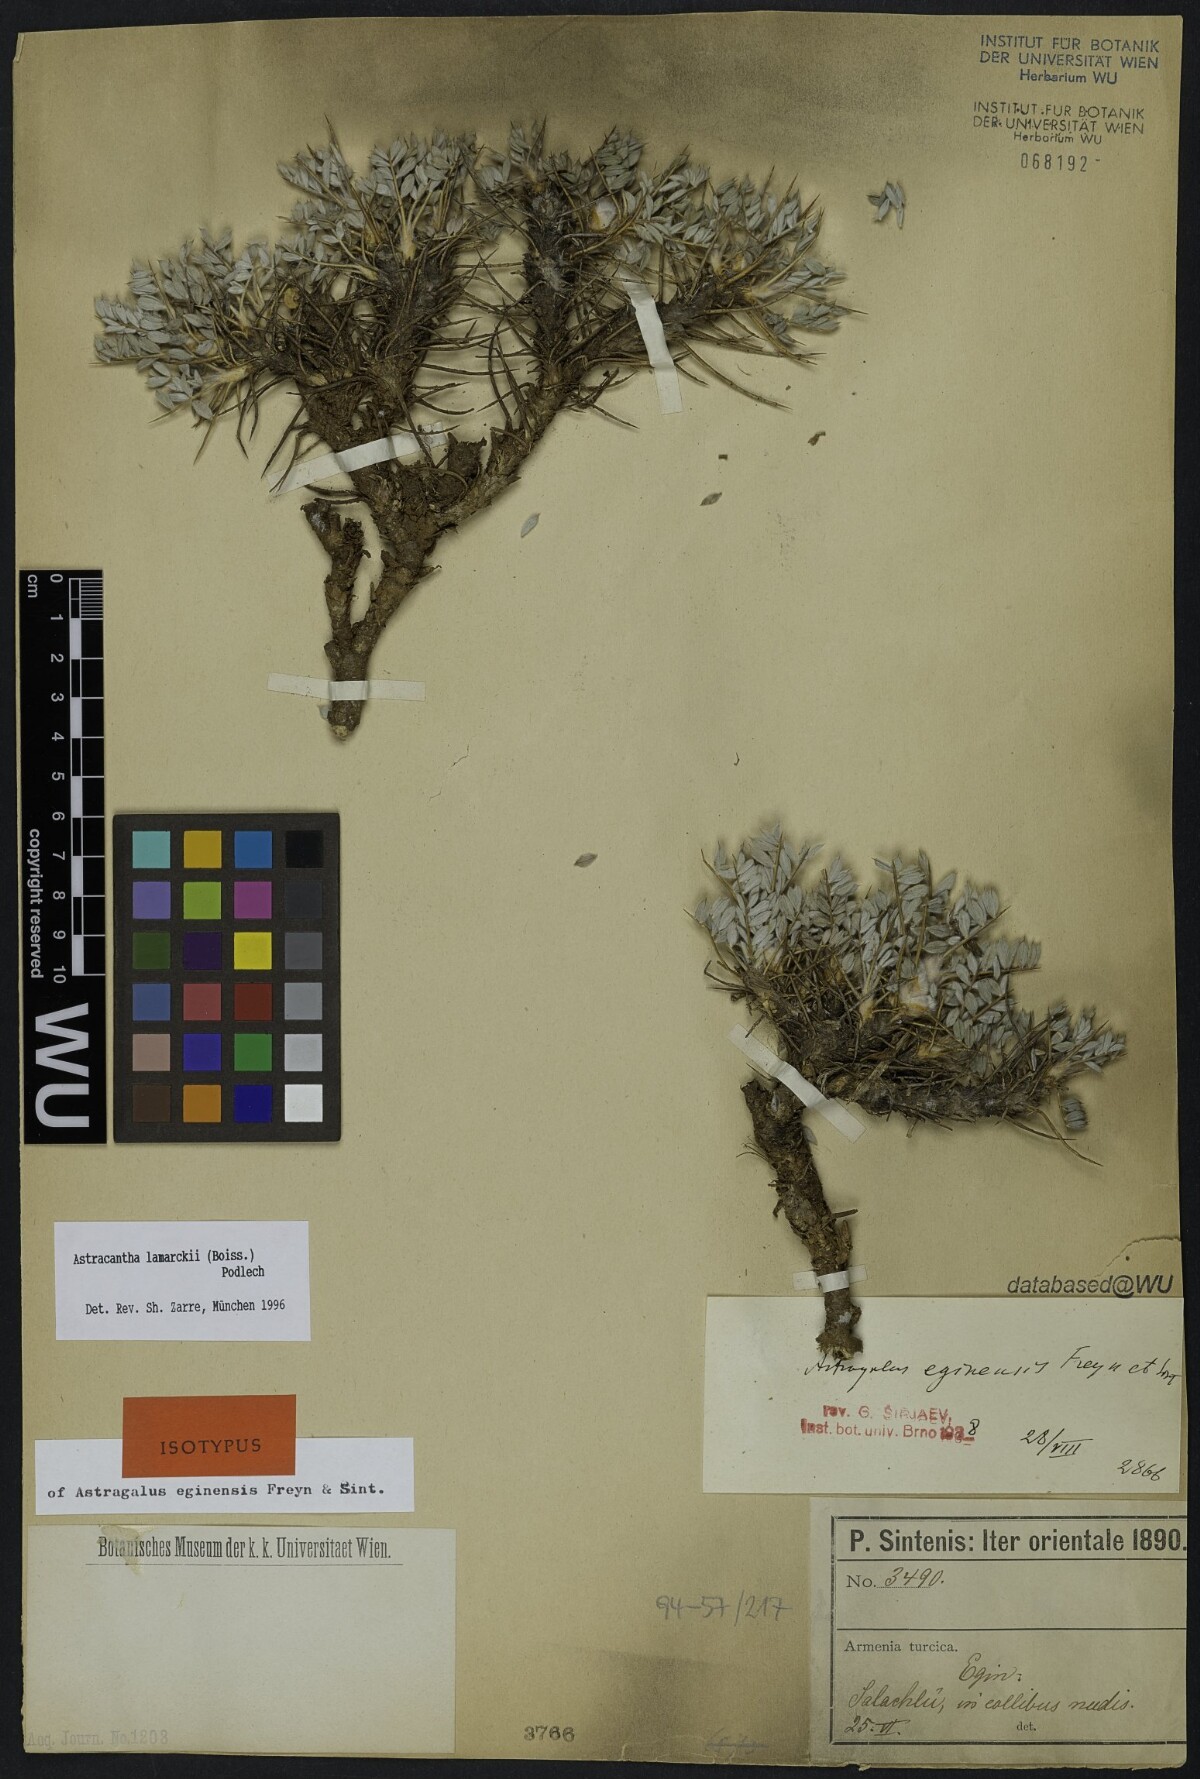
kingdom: Plantae
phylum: Tracheophyta
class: Magnoliopsida
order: Fabales
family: Fabaceae
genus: Astragalus
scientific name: Astragalus lamarckii
